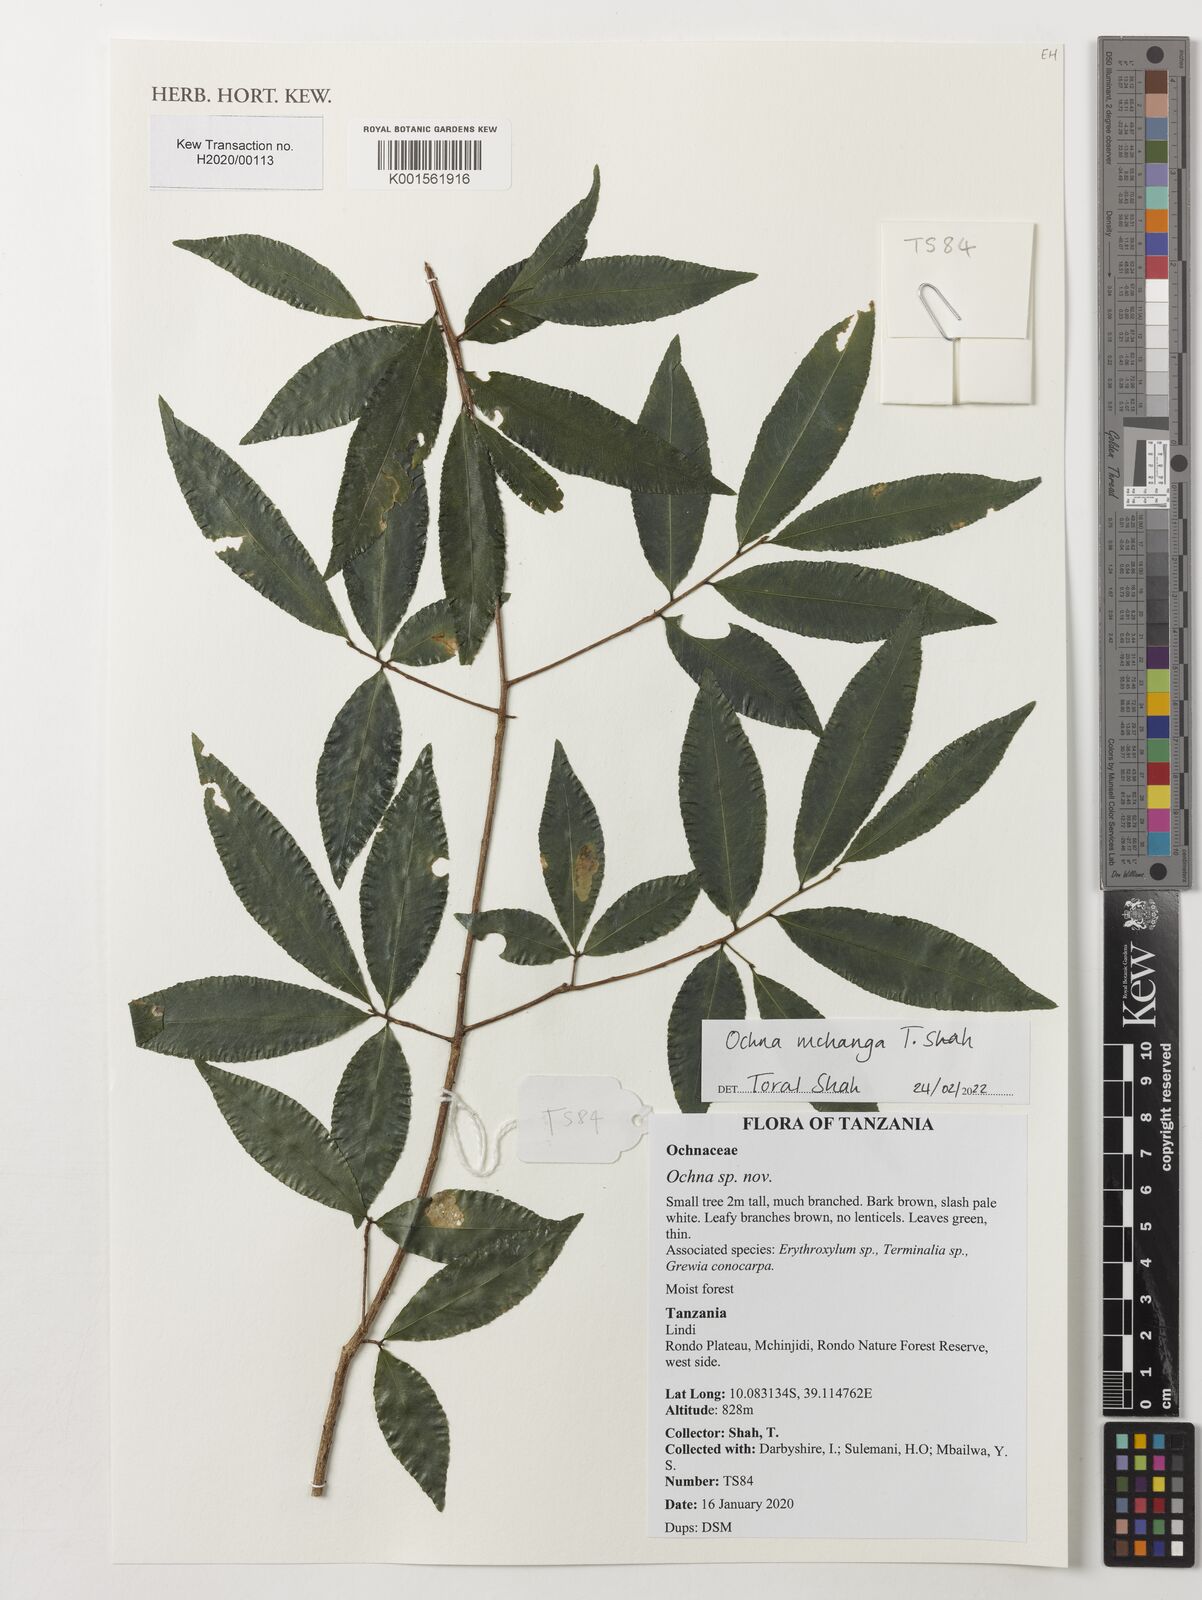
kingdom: Plantae
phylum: Tracheophyta
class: Magnoliopsida
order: Malpighiales
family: Ochnaceae
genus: Ochna
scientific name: Ochna
